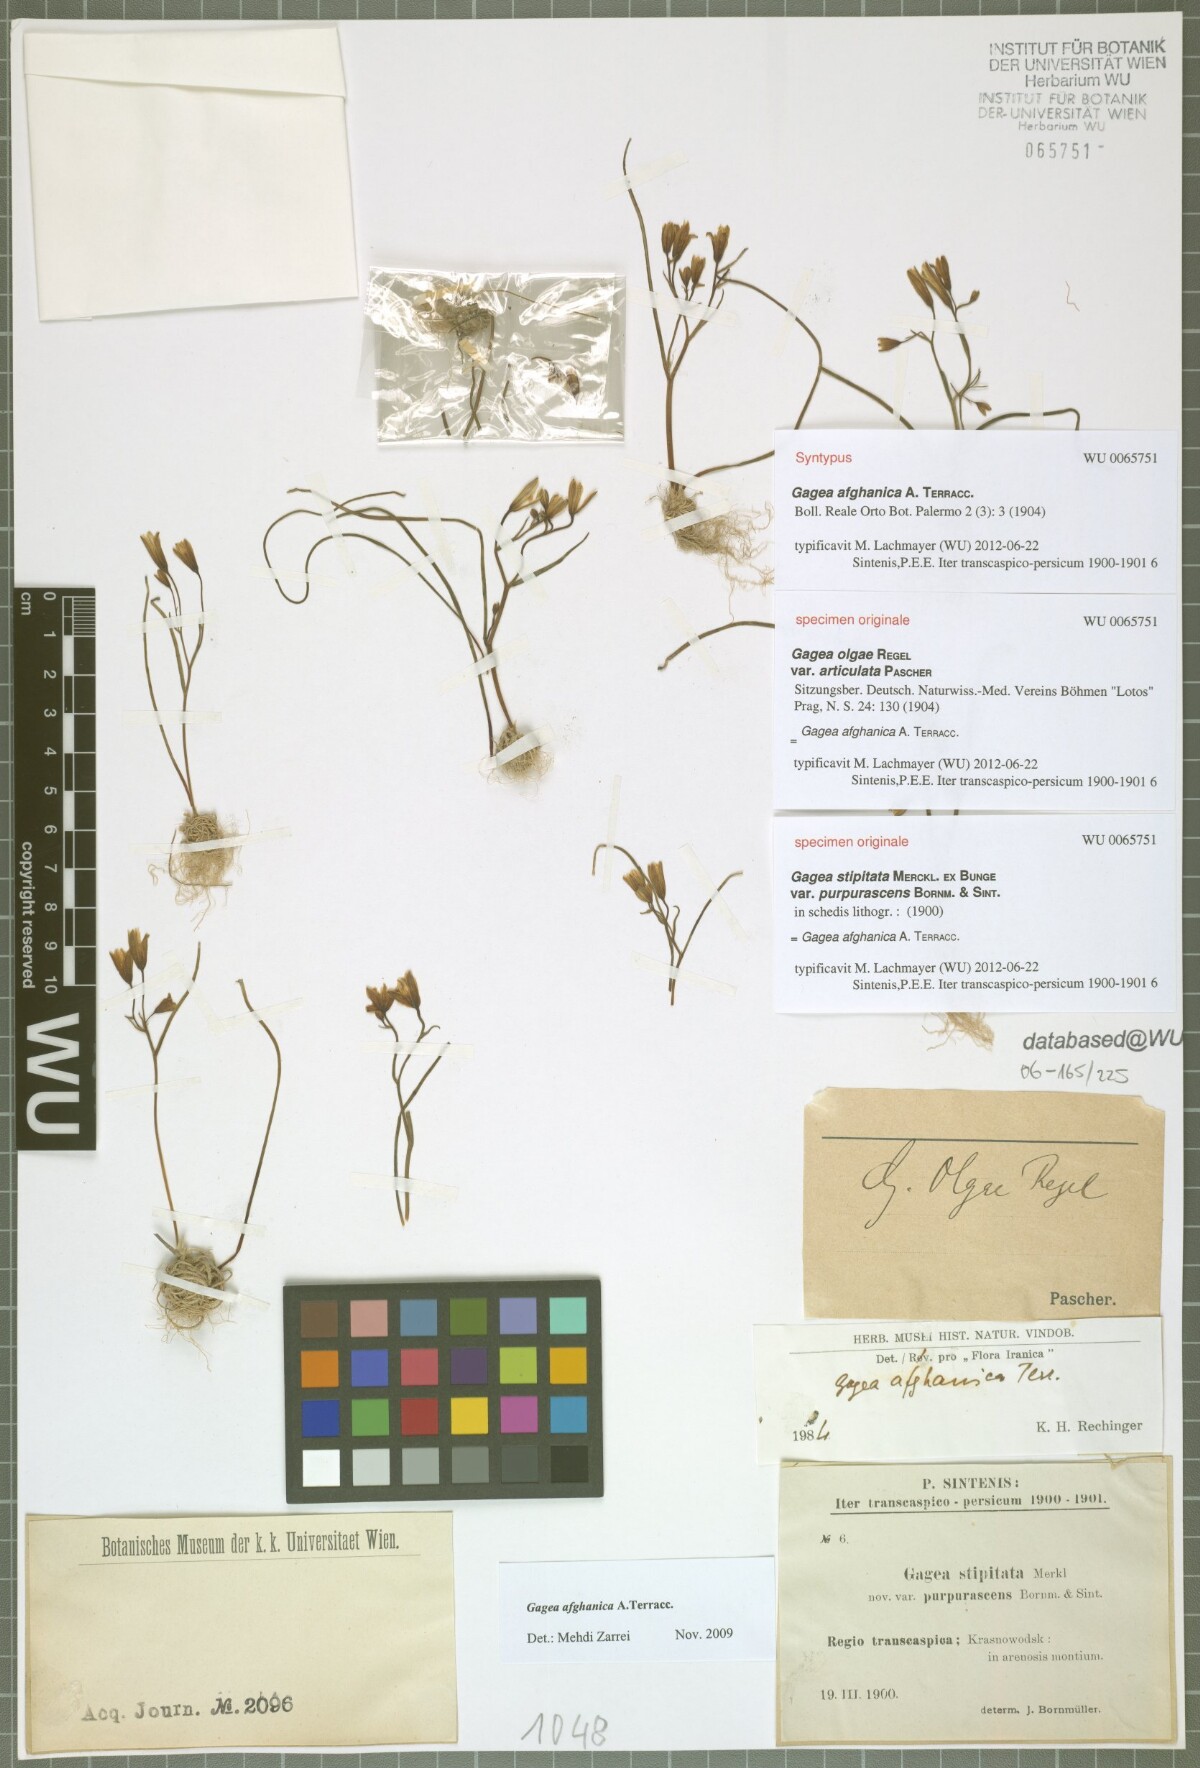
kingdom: Plantae
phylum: Tracheophyta
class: Liliopsida
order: Liliales
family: Liliaceae
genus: Gagea
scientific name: Gagea afghanica
